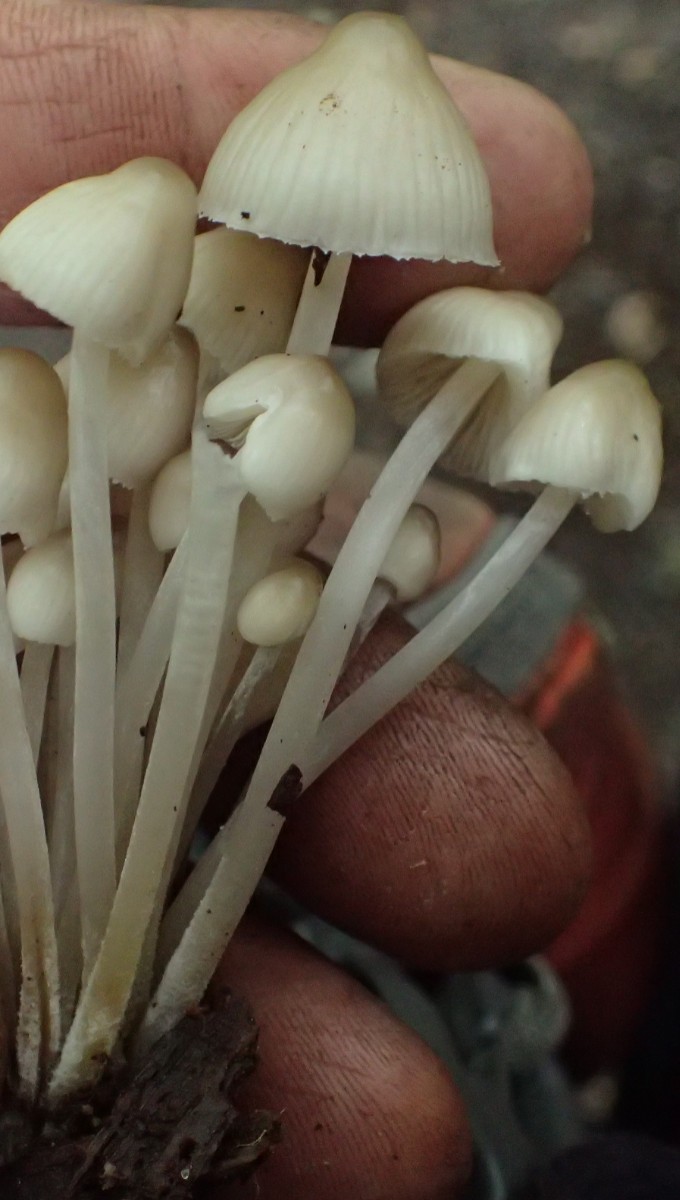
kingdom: Fungi
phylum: Basidiomycota
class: Agaricomycetes
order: Agaricales
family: Mycenaceae
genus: Mycena
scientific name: Mycena galericulata
